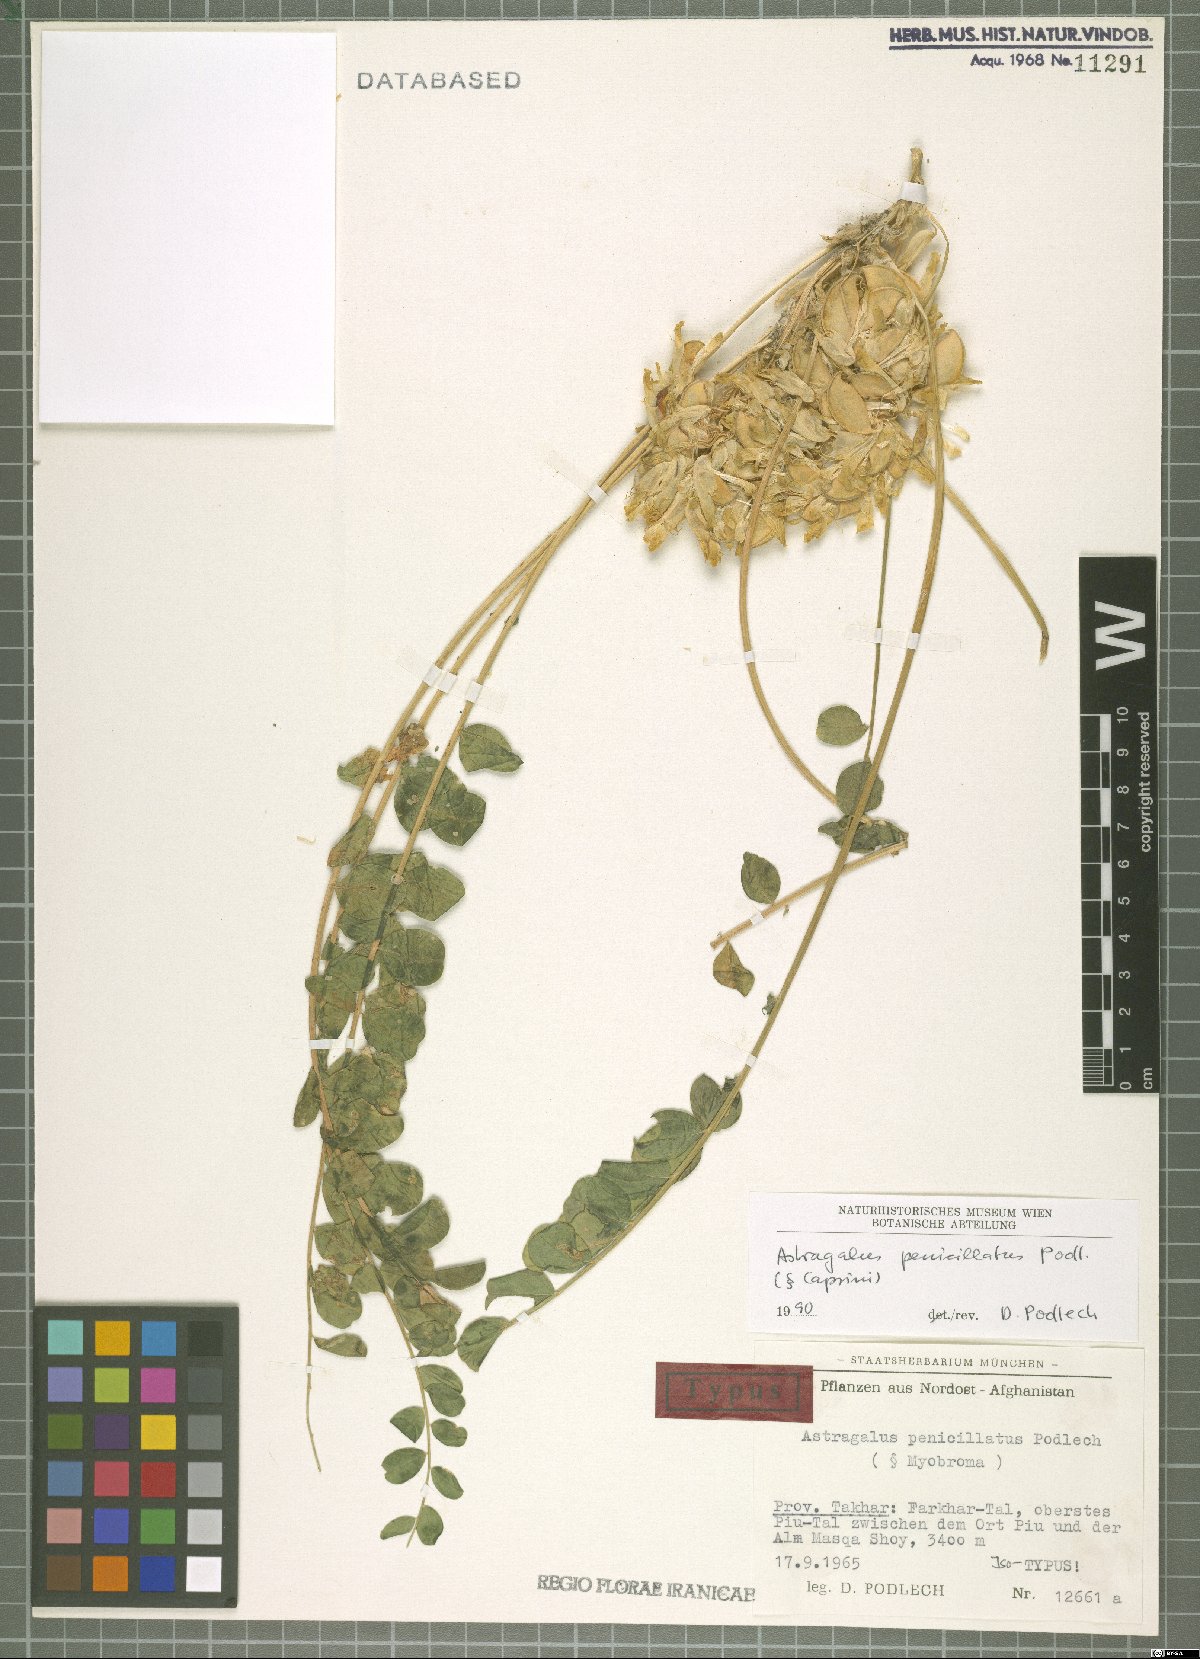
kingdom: Plantae
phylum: Tracheophyta
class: Magnoliopsida
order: Fabales
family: Fabaceae
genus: Astragalus
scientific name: Astragalus penicillatus
